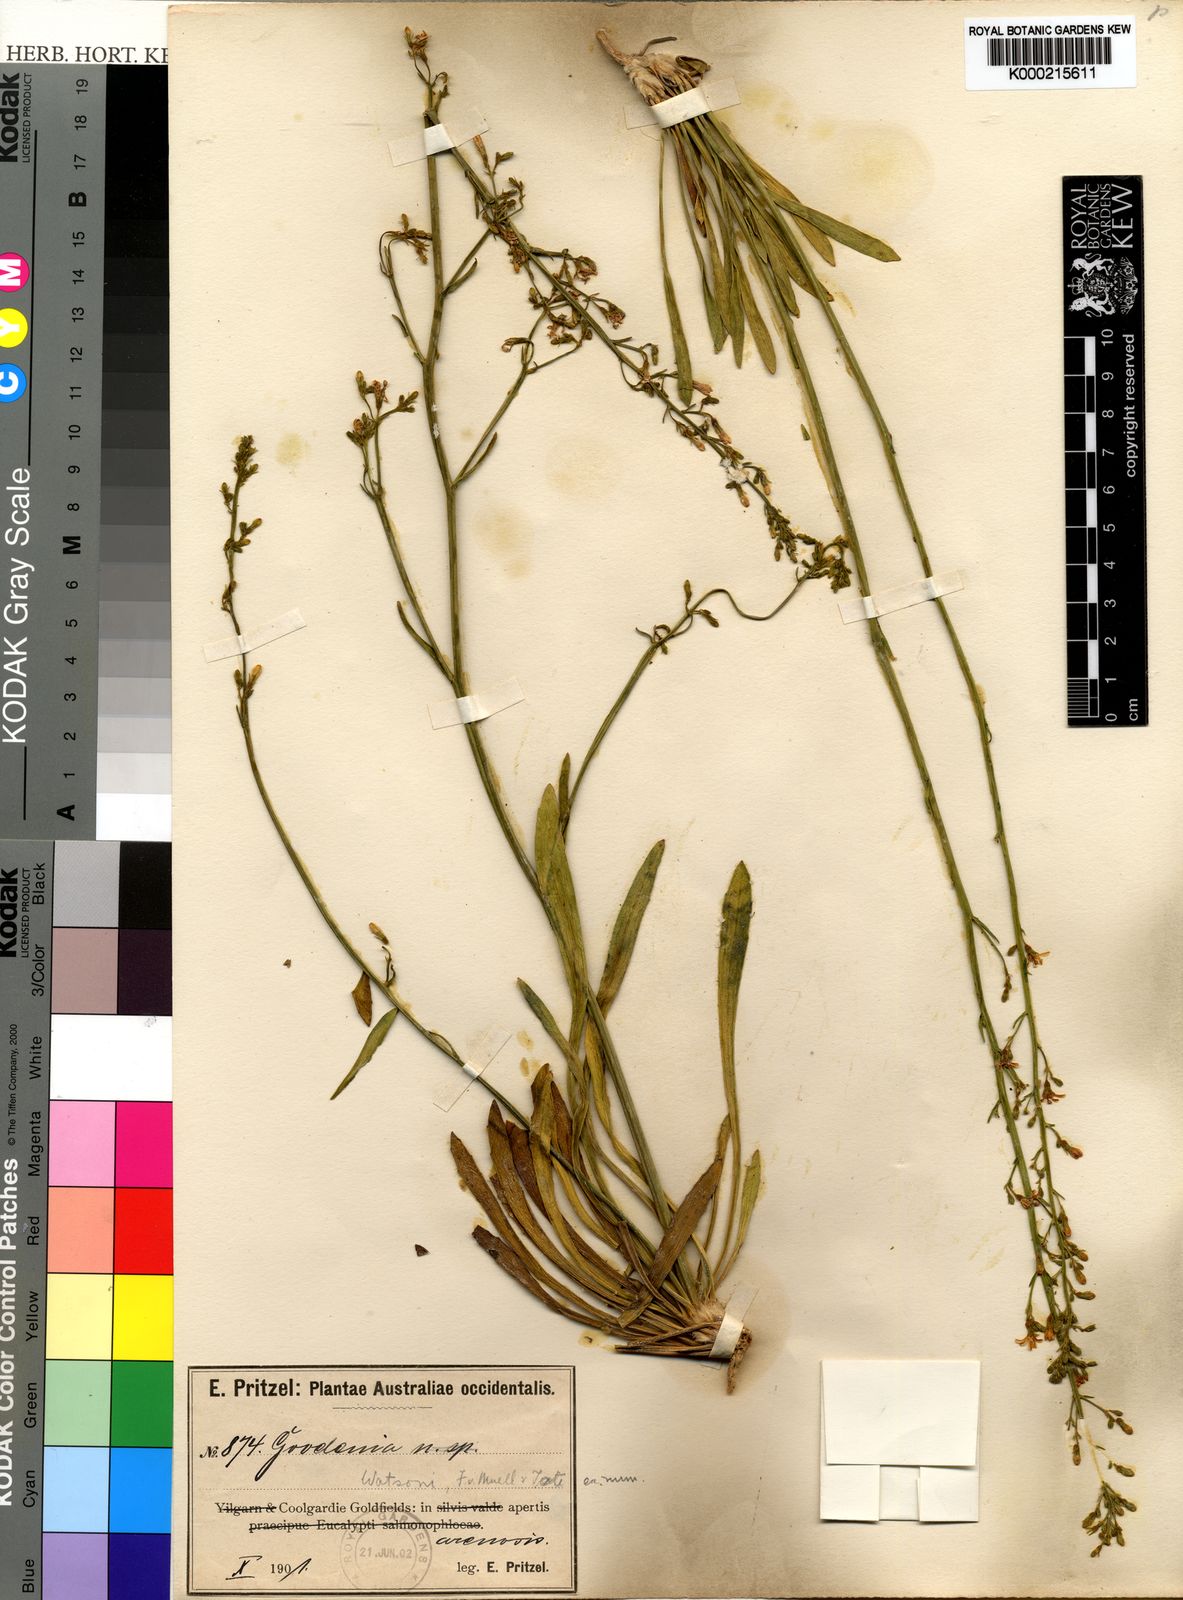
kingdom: Plantae
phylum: Tracheophyta
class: Magnoliopsida
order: Asterales
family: Goodeniaceae
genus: Goodenia
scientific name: Goodenia watsonii
